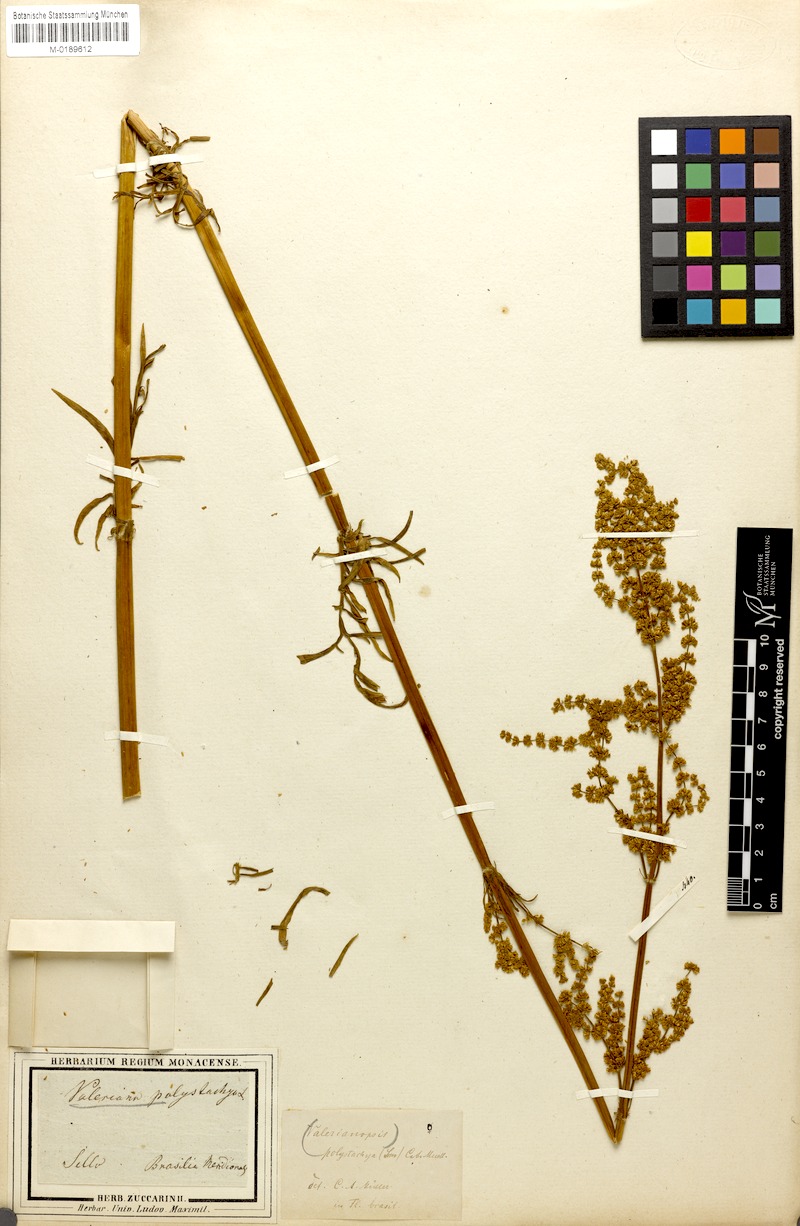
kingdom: Plantae
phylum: Tracheophyta
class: Magnoliopsida
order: Dipsacales
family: Caprifoliaceae
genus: Valeriana
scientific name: Valeriana polystachya
